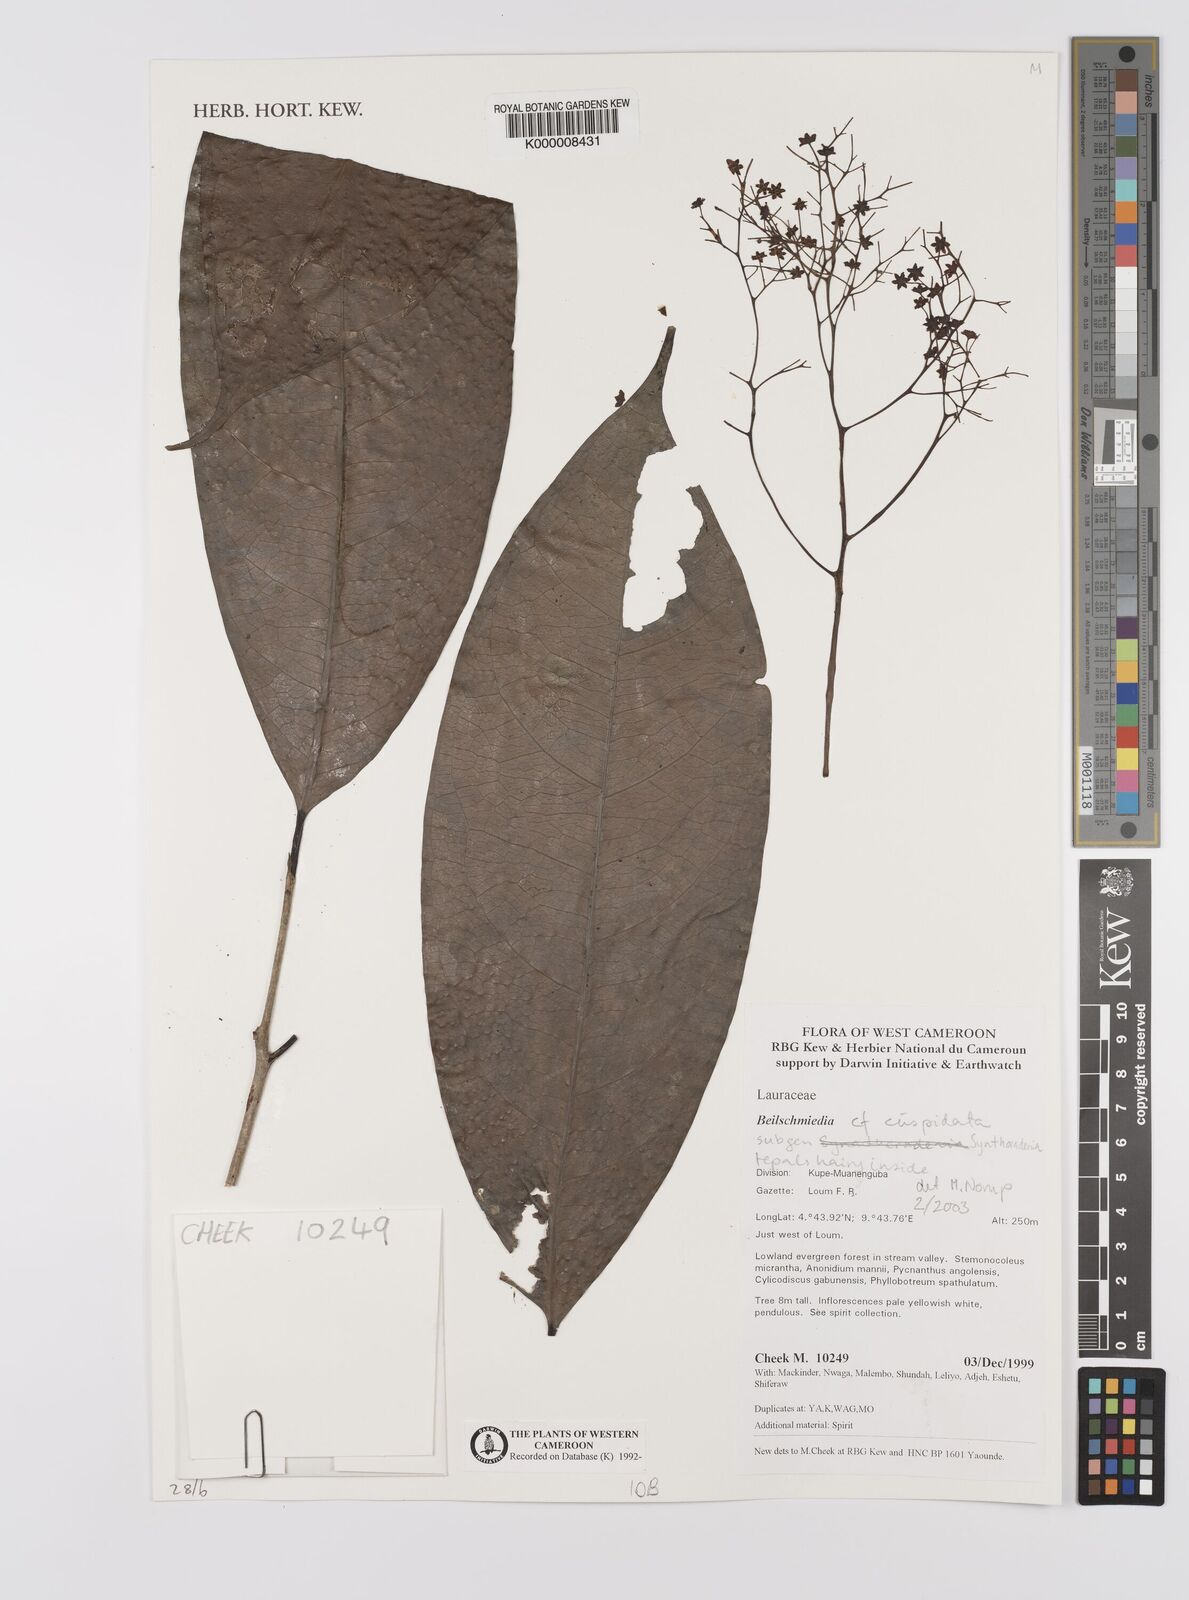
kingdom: Plantae
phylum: Tracheophyta
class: Magnoliopsida
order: Laurales
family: Lauraceae
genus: Beilschmiedia
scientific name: Beilschmiedia cuspidata
